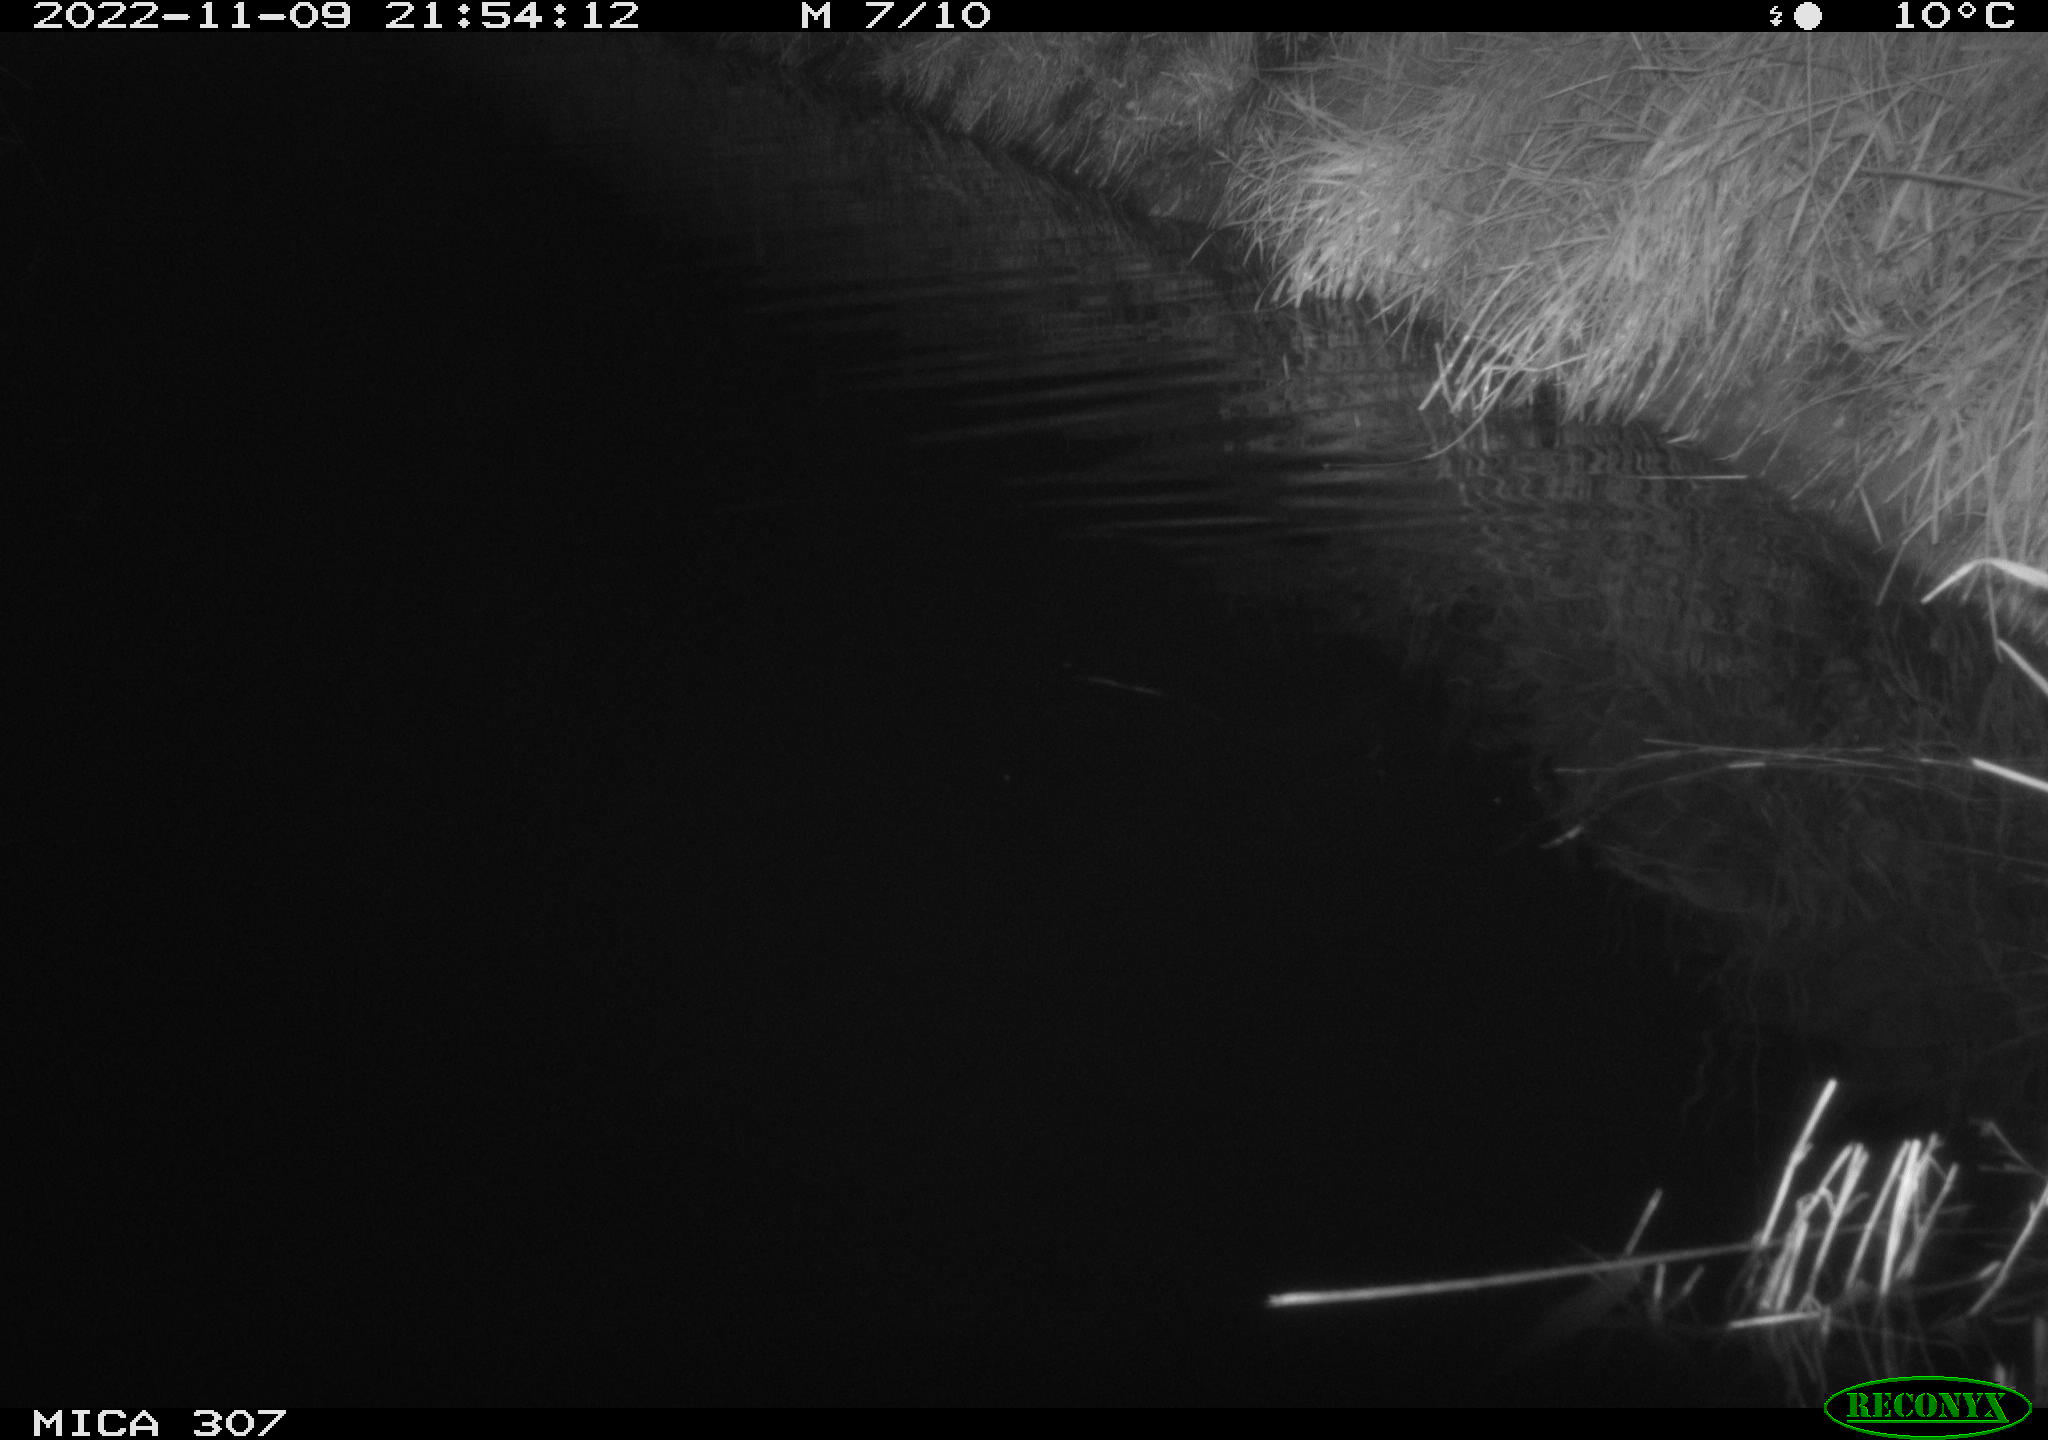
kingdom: Animalia
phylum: Chordata
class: Aves
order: Anseriformes
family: Anatidae
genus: Anas
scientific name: Anas
